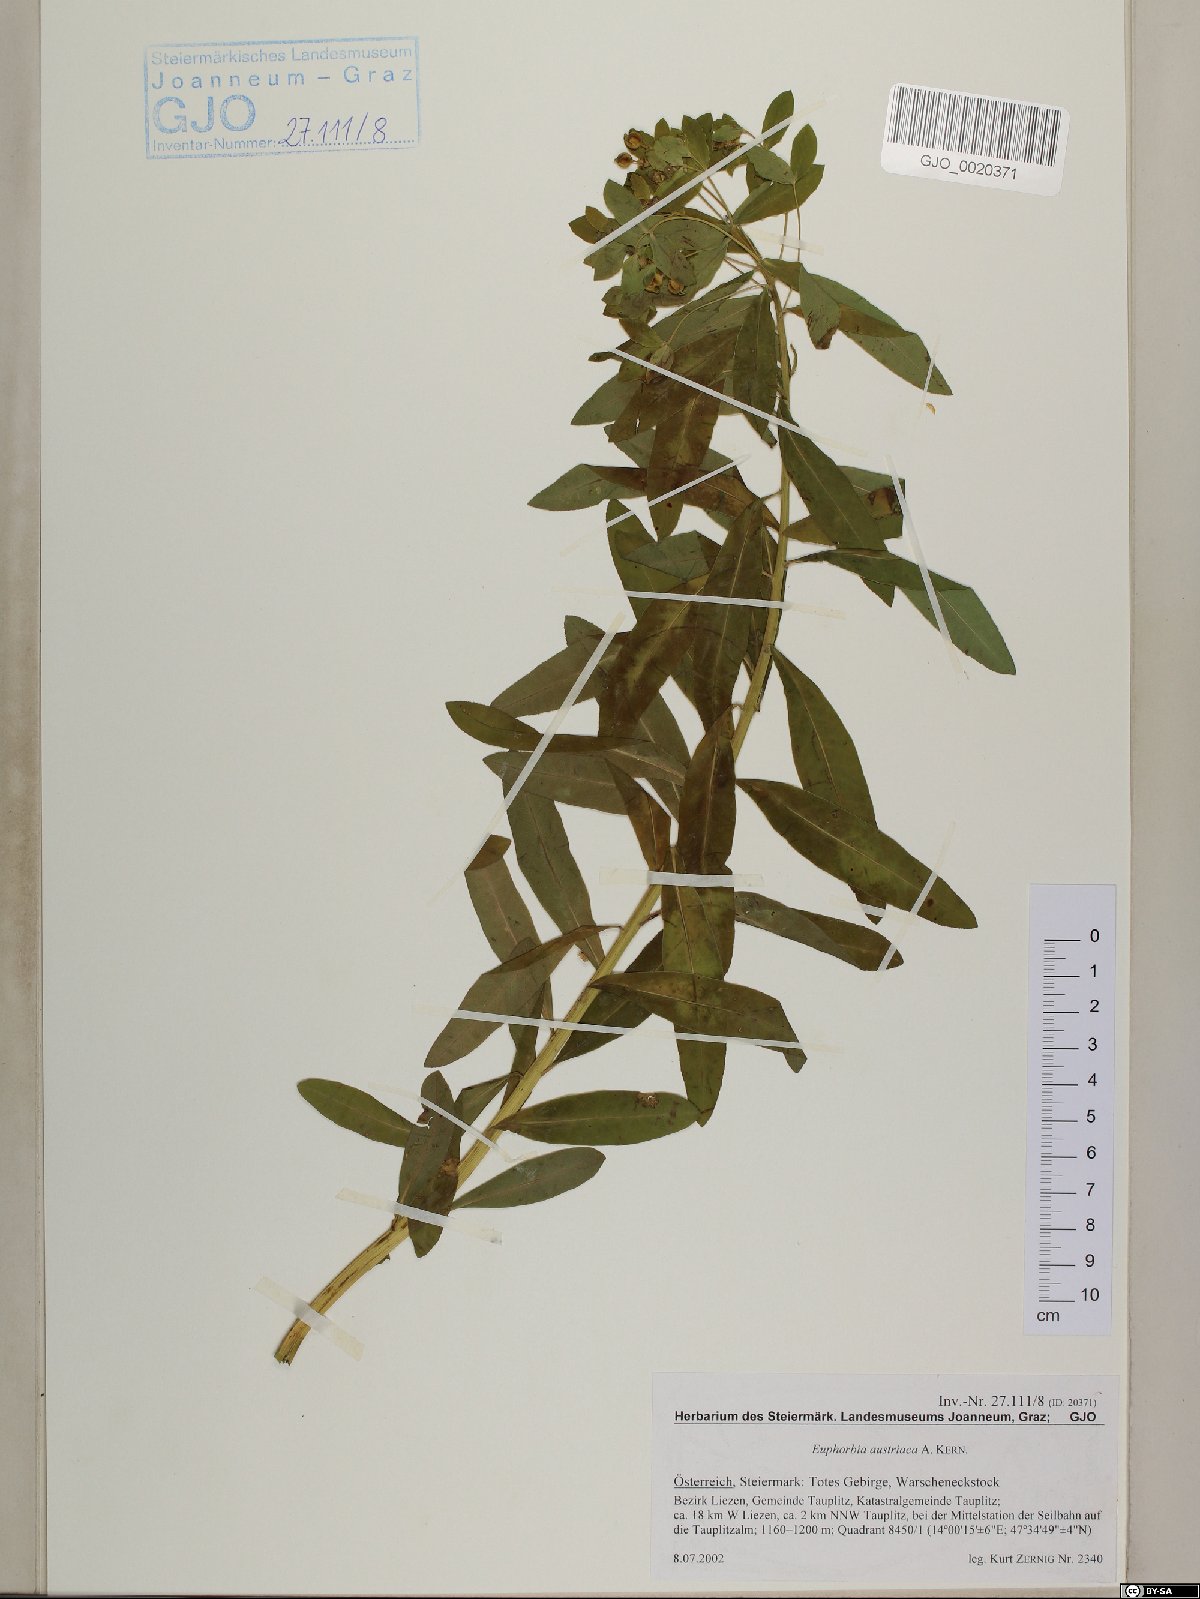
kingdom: Plantae
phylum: Tracheophyta
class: Magnoliopsida
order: Malpighiales
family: Euphorbiaceae
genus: Euphorbia
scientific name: Euphorbia austriaca
